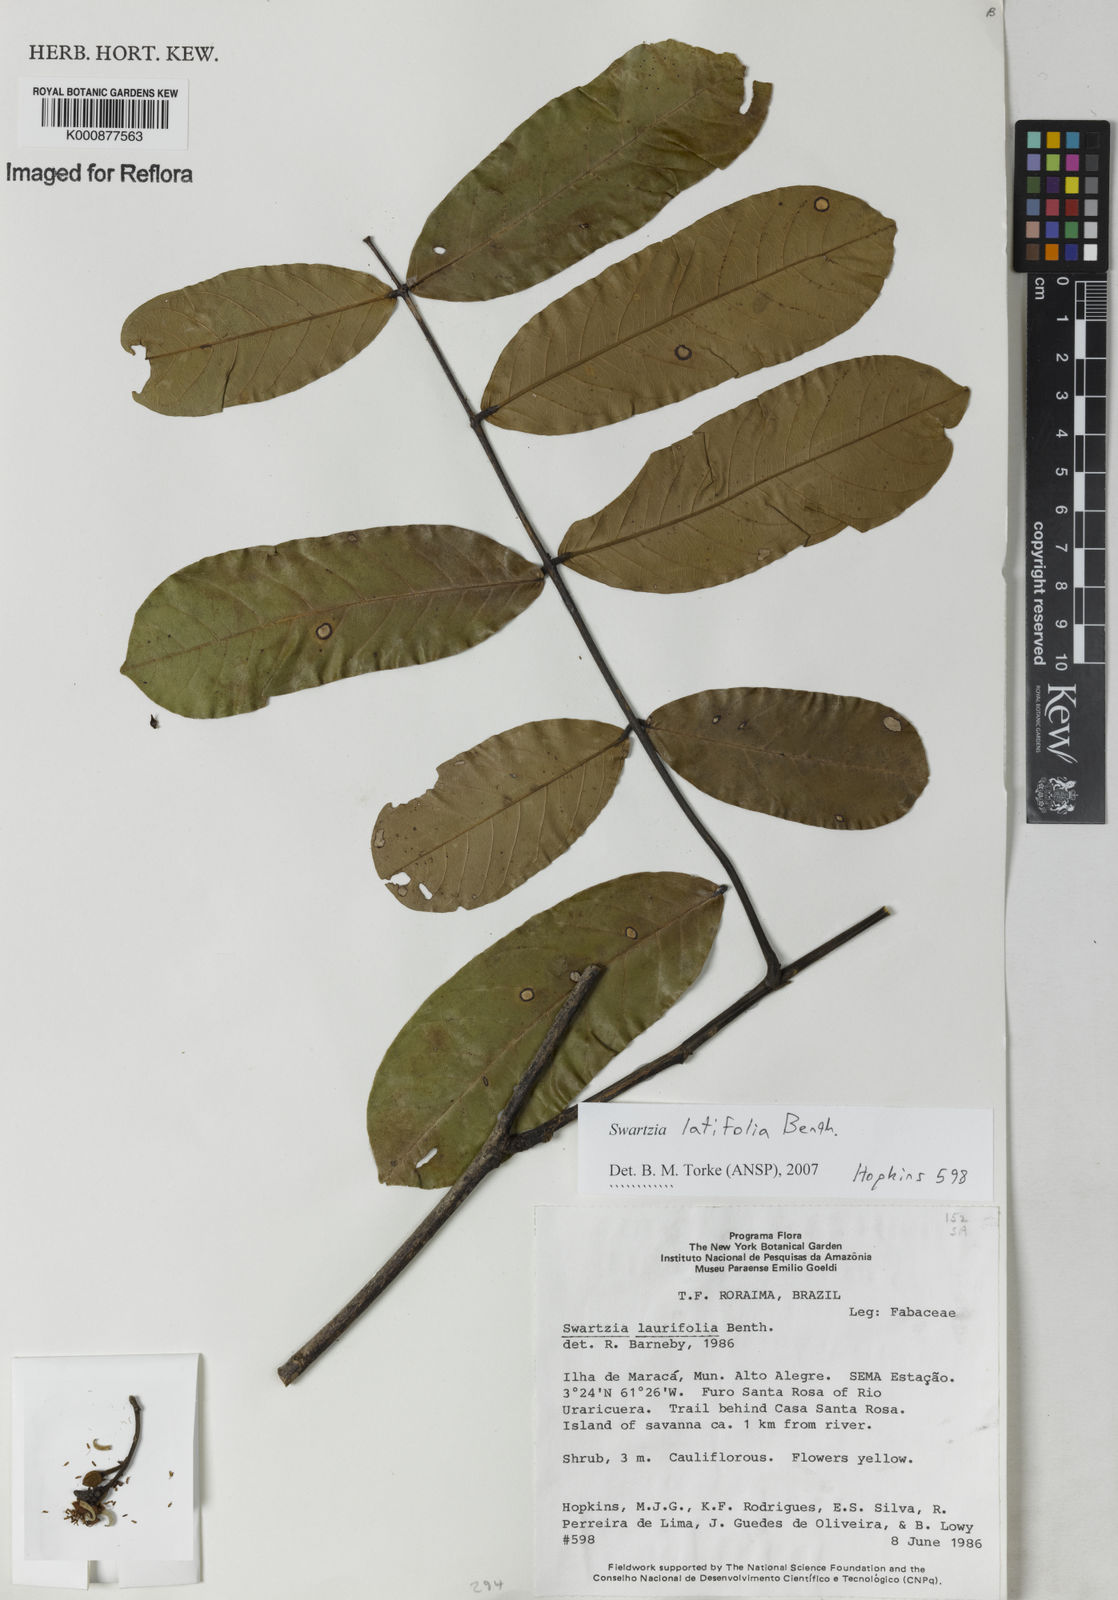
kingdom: Plantae
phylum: Tracheophyta
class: Magnoliopsida
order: Fabales
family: Fabaceae
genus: Swartzia
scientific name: Swartzia latifolia
